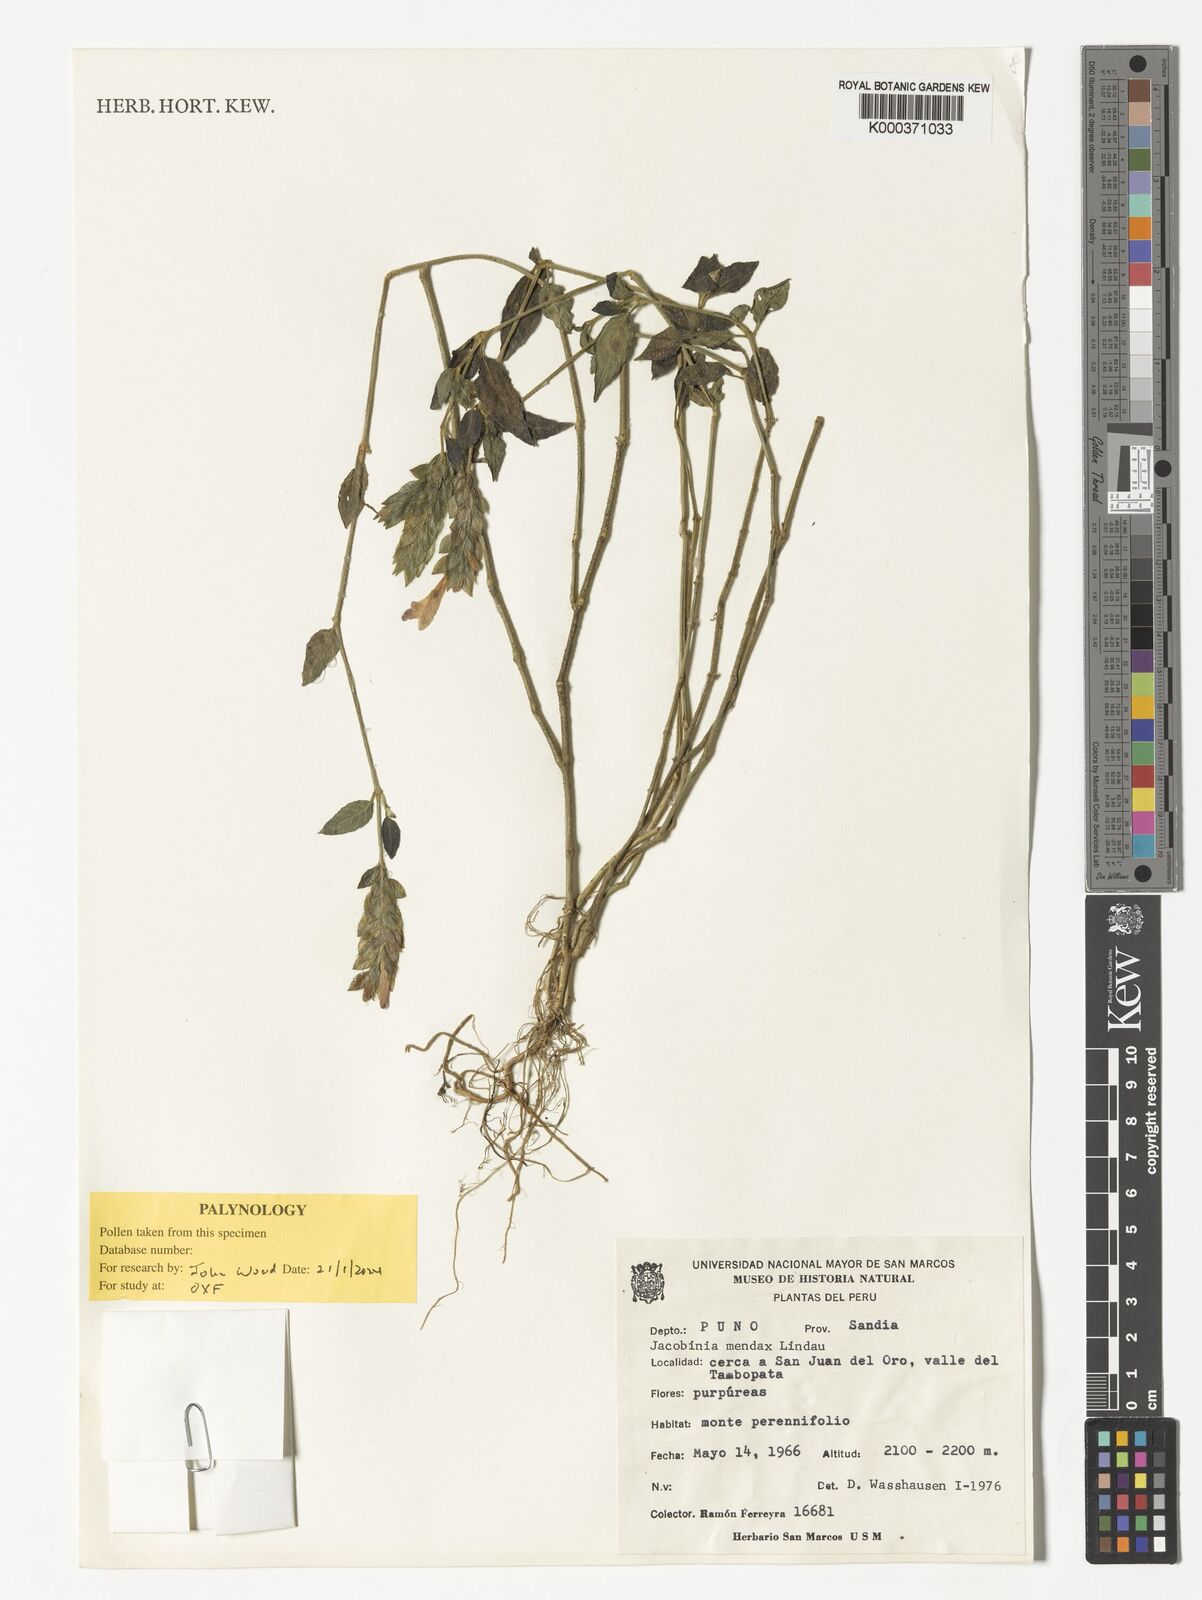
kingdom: Plantae
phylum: Tracheophyta
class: Magnoliopsida
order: Lamiales
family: Acanthaceae
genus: Justicia
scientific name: Justicia mendax
